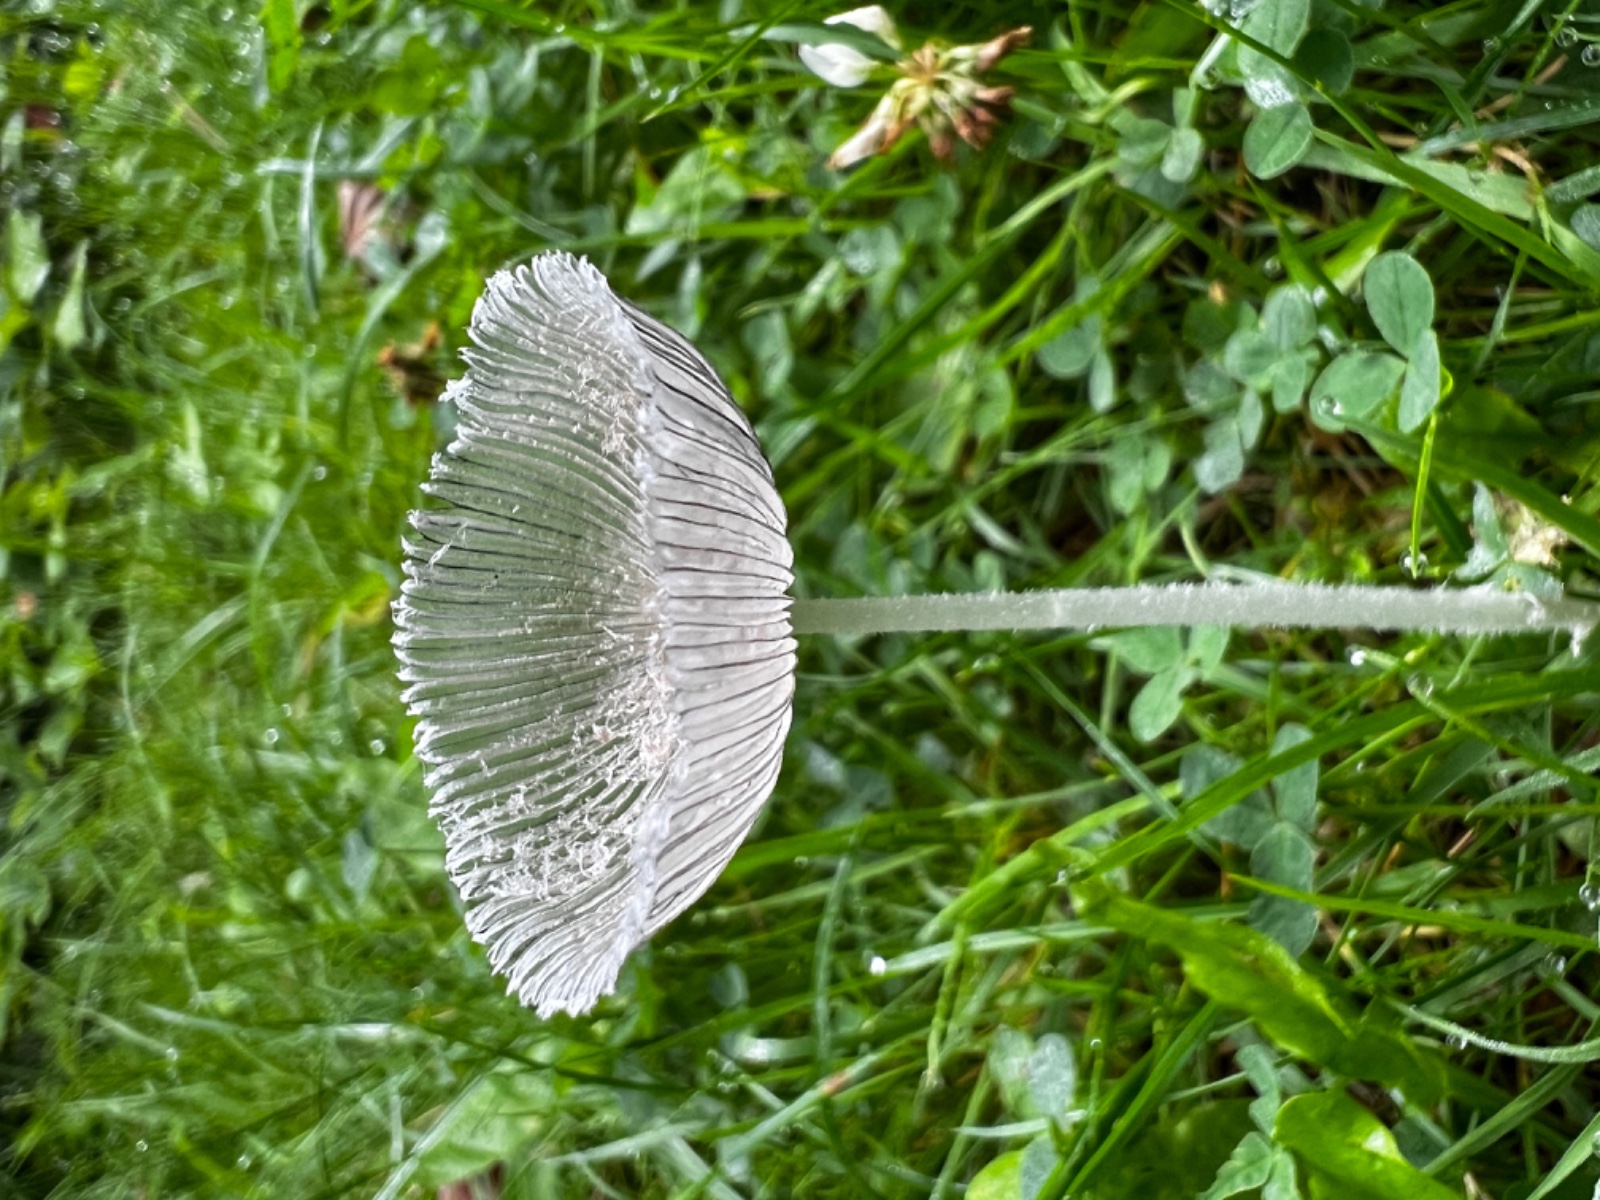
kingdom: Fungi
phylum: Basidiomycota
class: Agaricomycetes
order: Agaricales
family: Psathyrellaceae
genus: Coprinopsis
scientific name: Coprinopsis lagopus
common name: dunstokket blækhat
